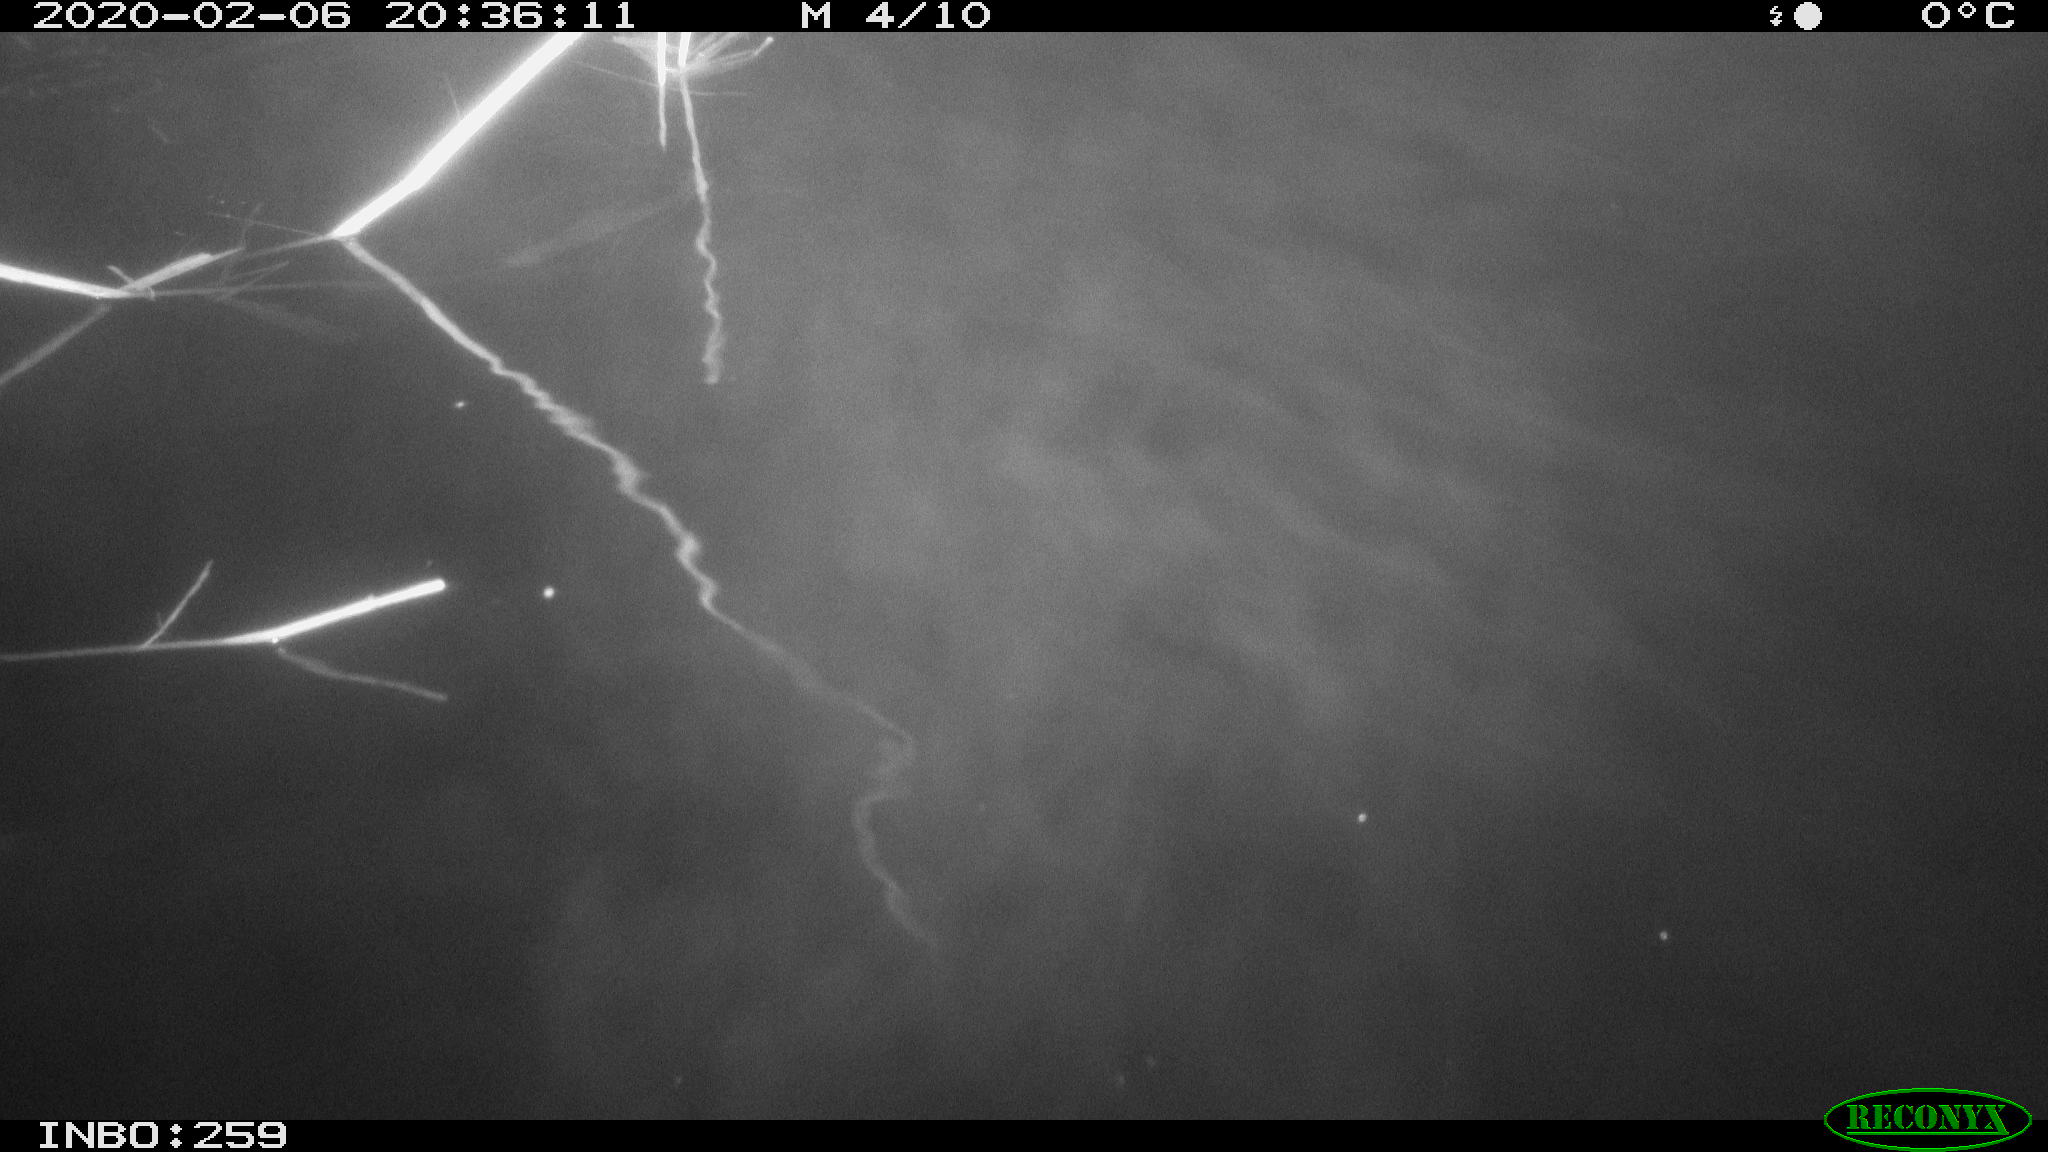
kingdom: Animalia
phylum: Chordata
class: Mammalia
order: Rodentia
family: Cricetidae
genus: Ondatra
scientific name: Ondatra zibethicus
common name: Muskrat
